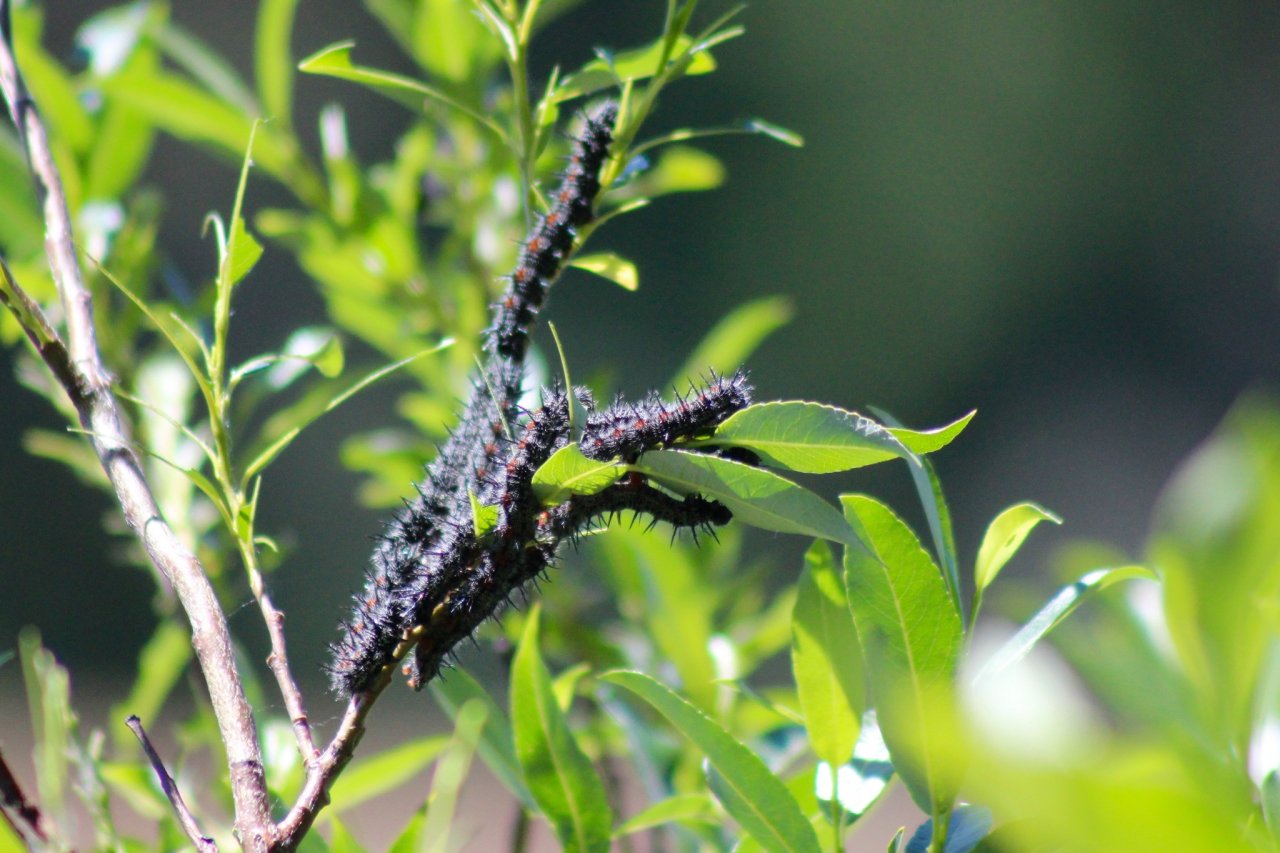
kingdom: Animalia
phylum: Arthropoda
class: Insecta
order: Lepidoptera
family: Nymphalidae
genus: Nymphalis
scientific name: Nymphalis antiopa
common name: Mourning Cloak
